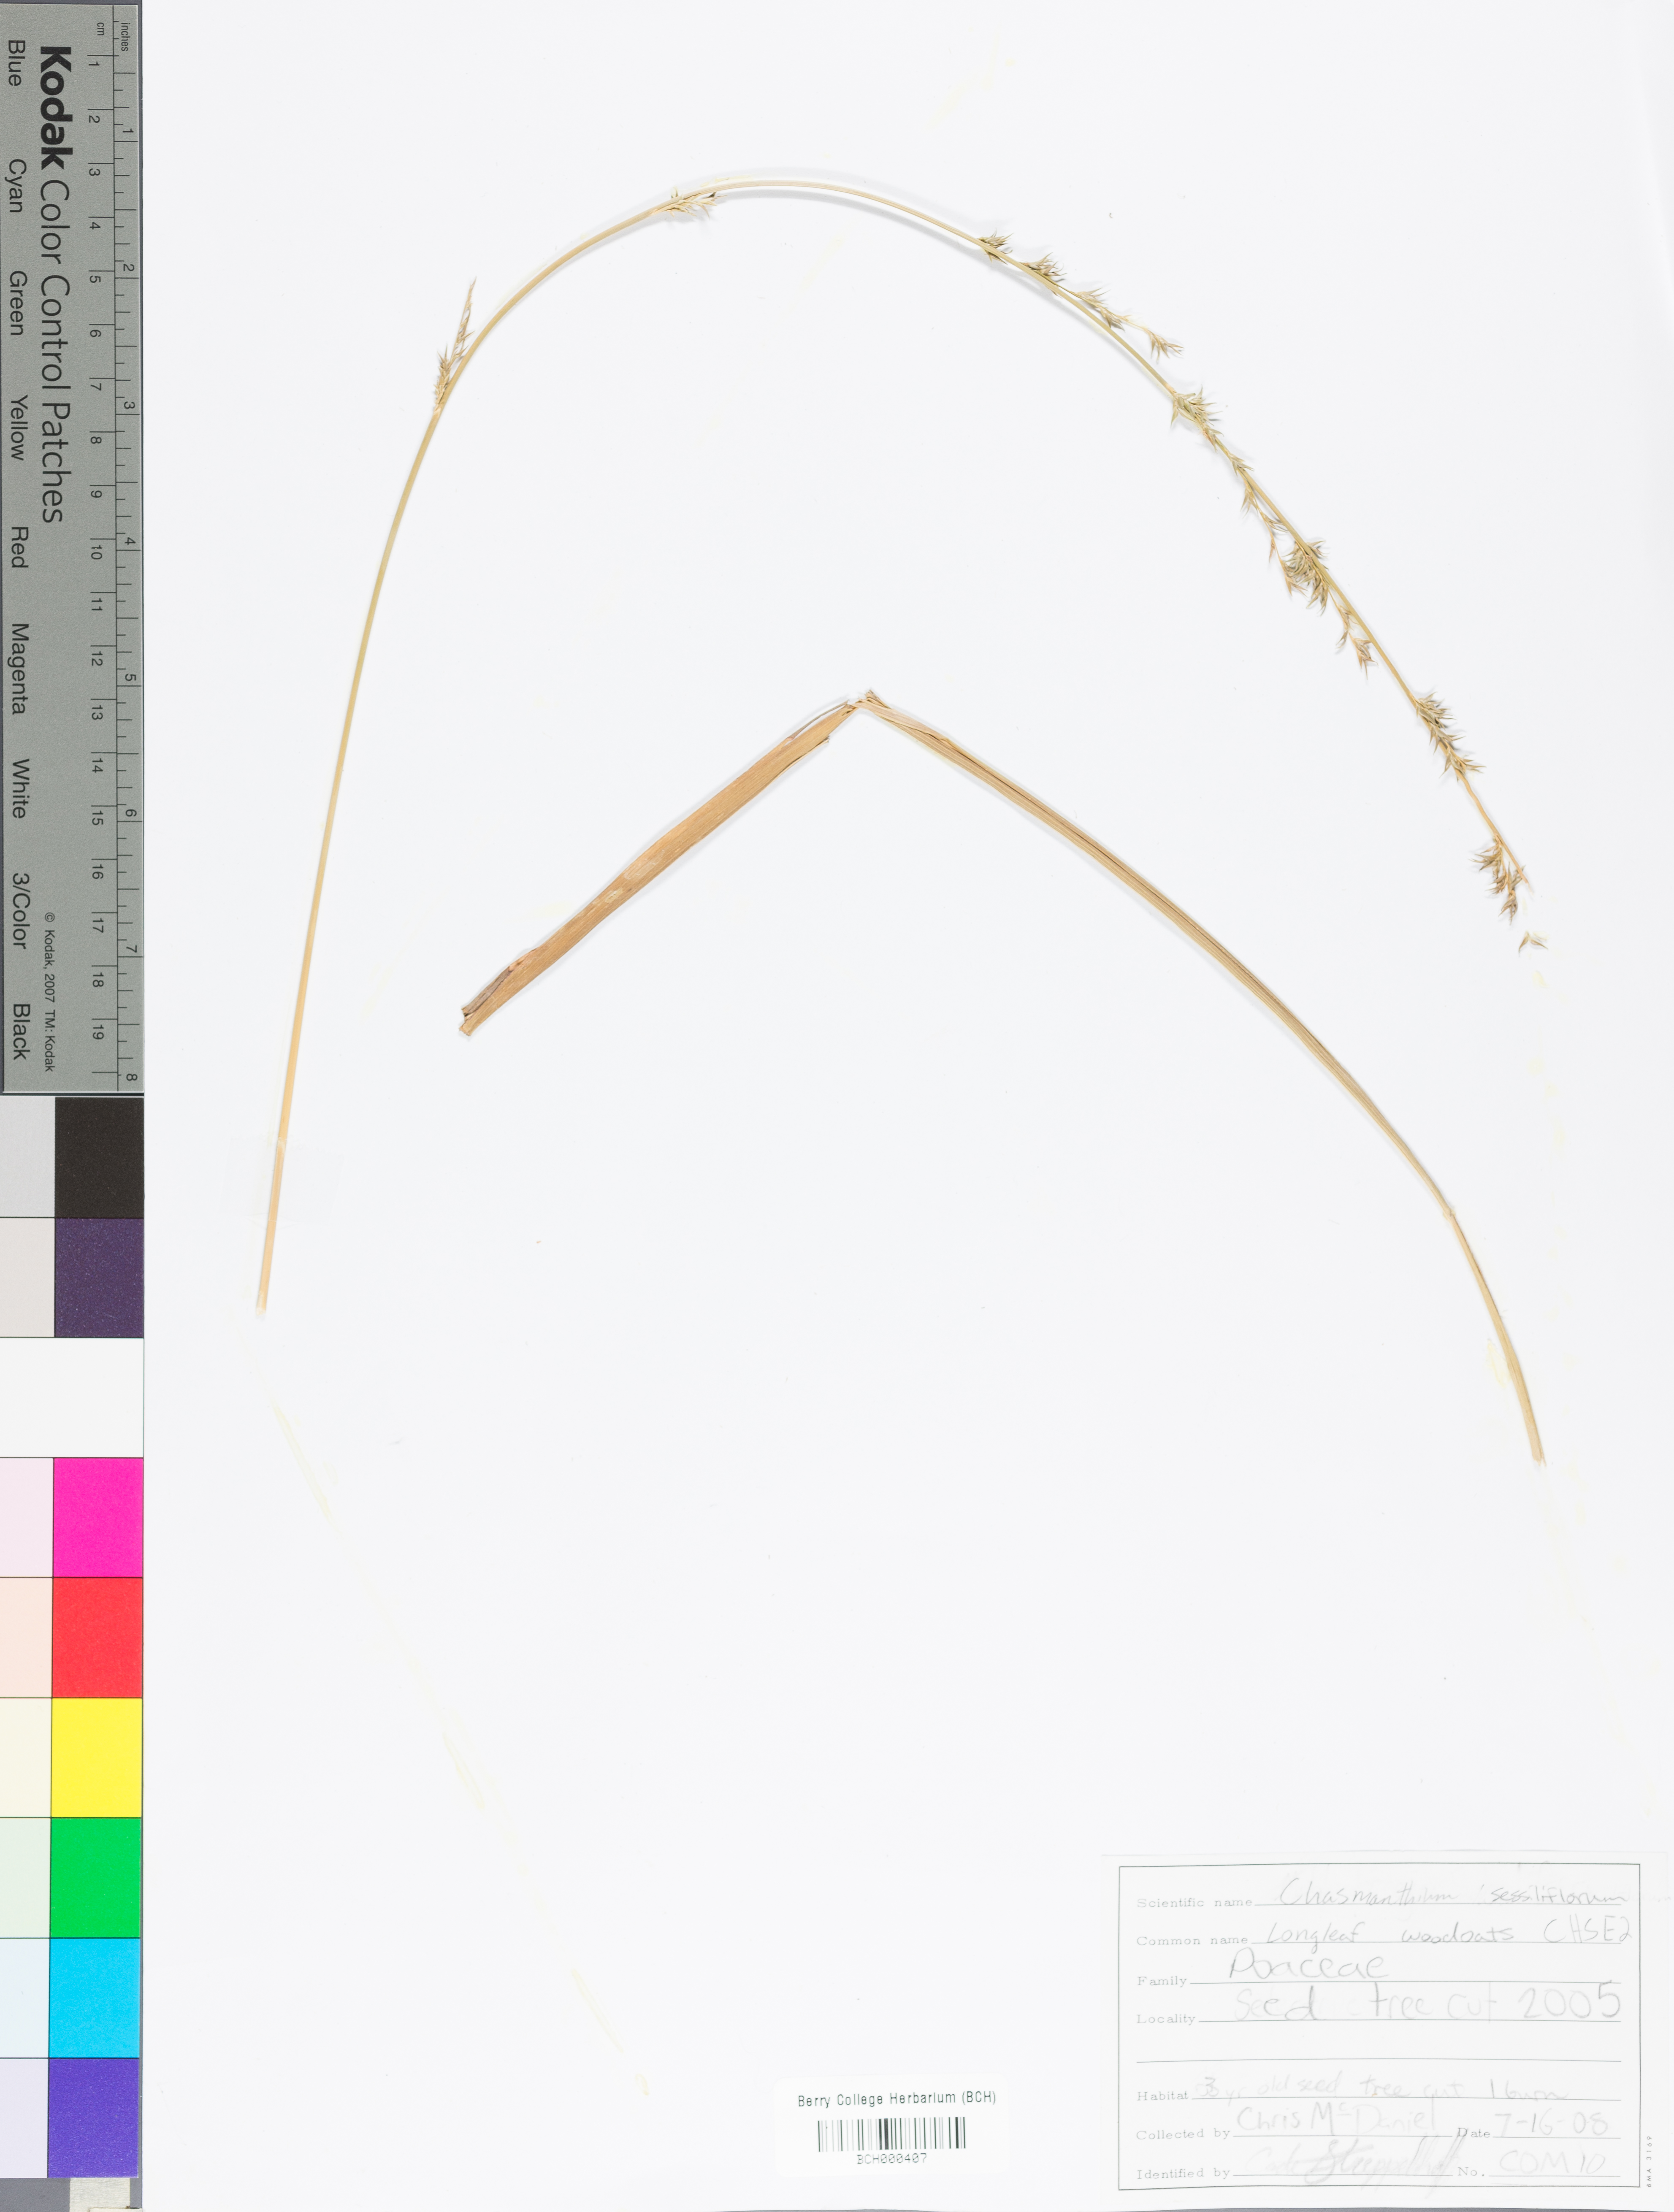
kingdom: Plantae
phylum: Tracheophyta
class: Liliopsida
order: Poales
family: Poaceae
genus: Chasmanthium
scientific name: Chasmanthium laxum
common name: Slender chasmanthium
